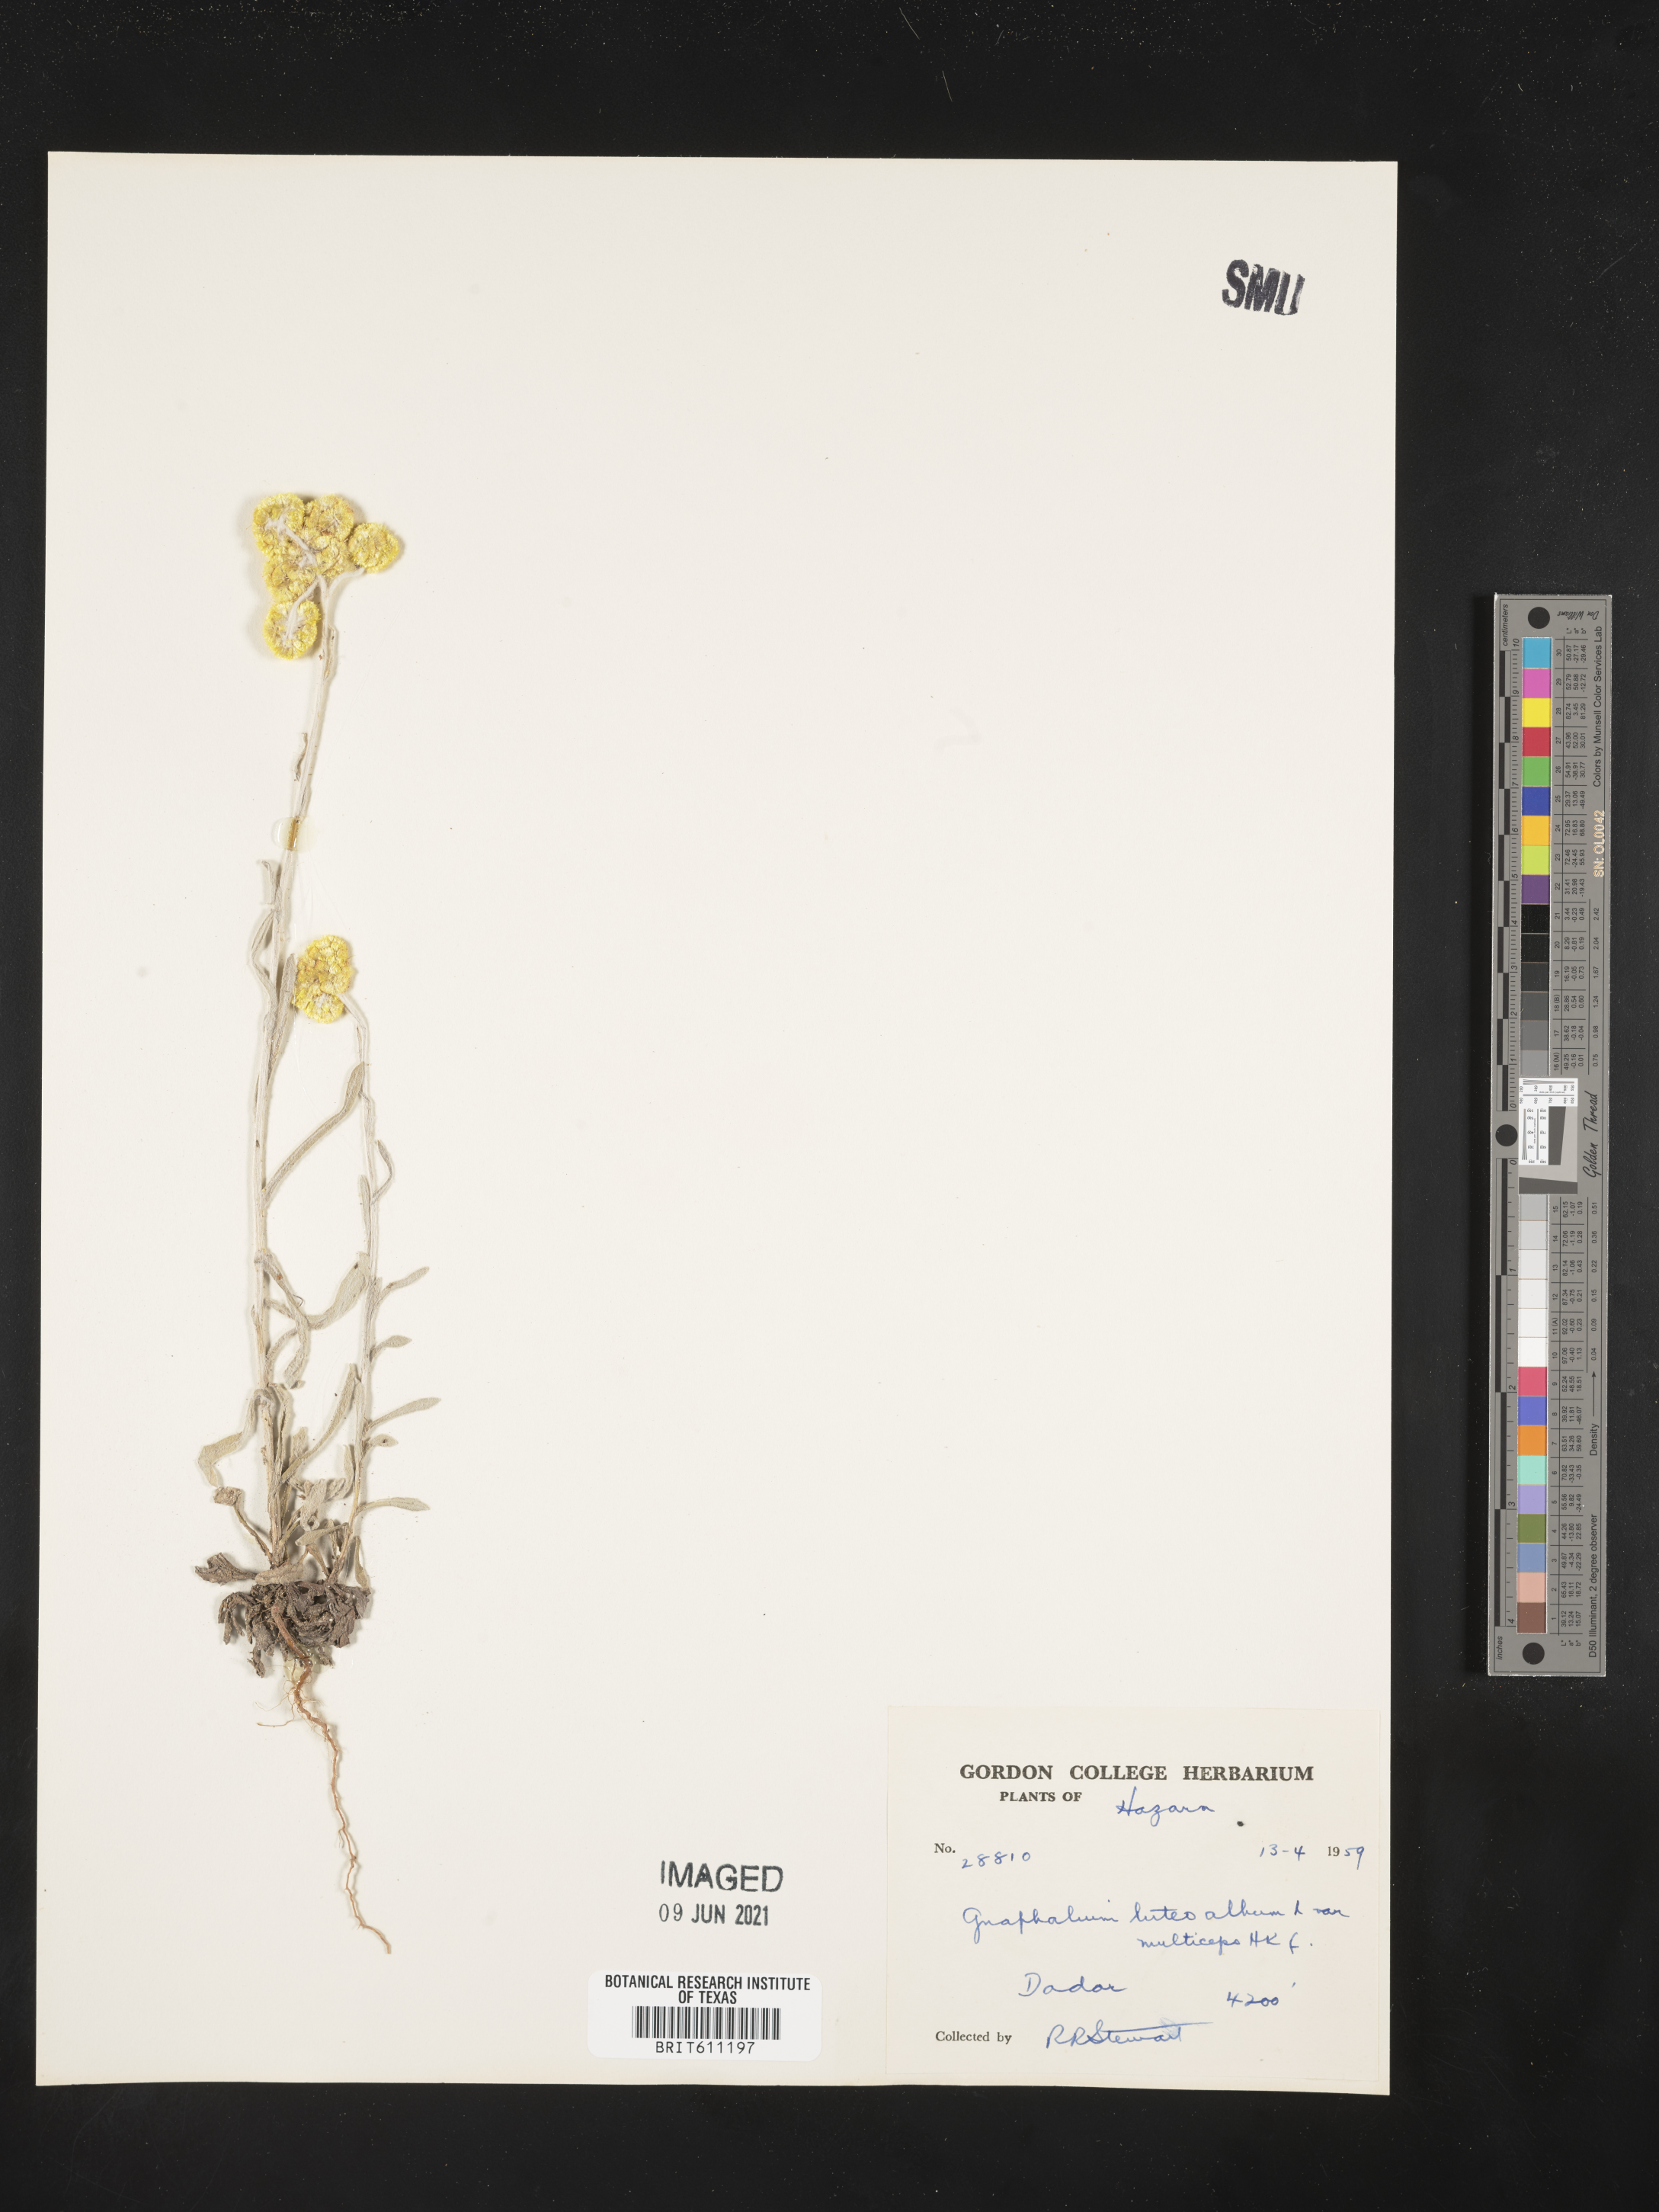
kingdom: Plantae
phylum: Tracheophyta
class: Magnoliopsida
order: Asterales
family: Asteraceae
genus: Helichrysum
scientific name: Helichrysum luteoalbum
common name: Daisy
